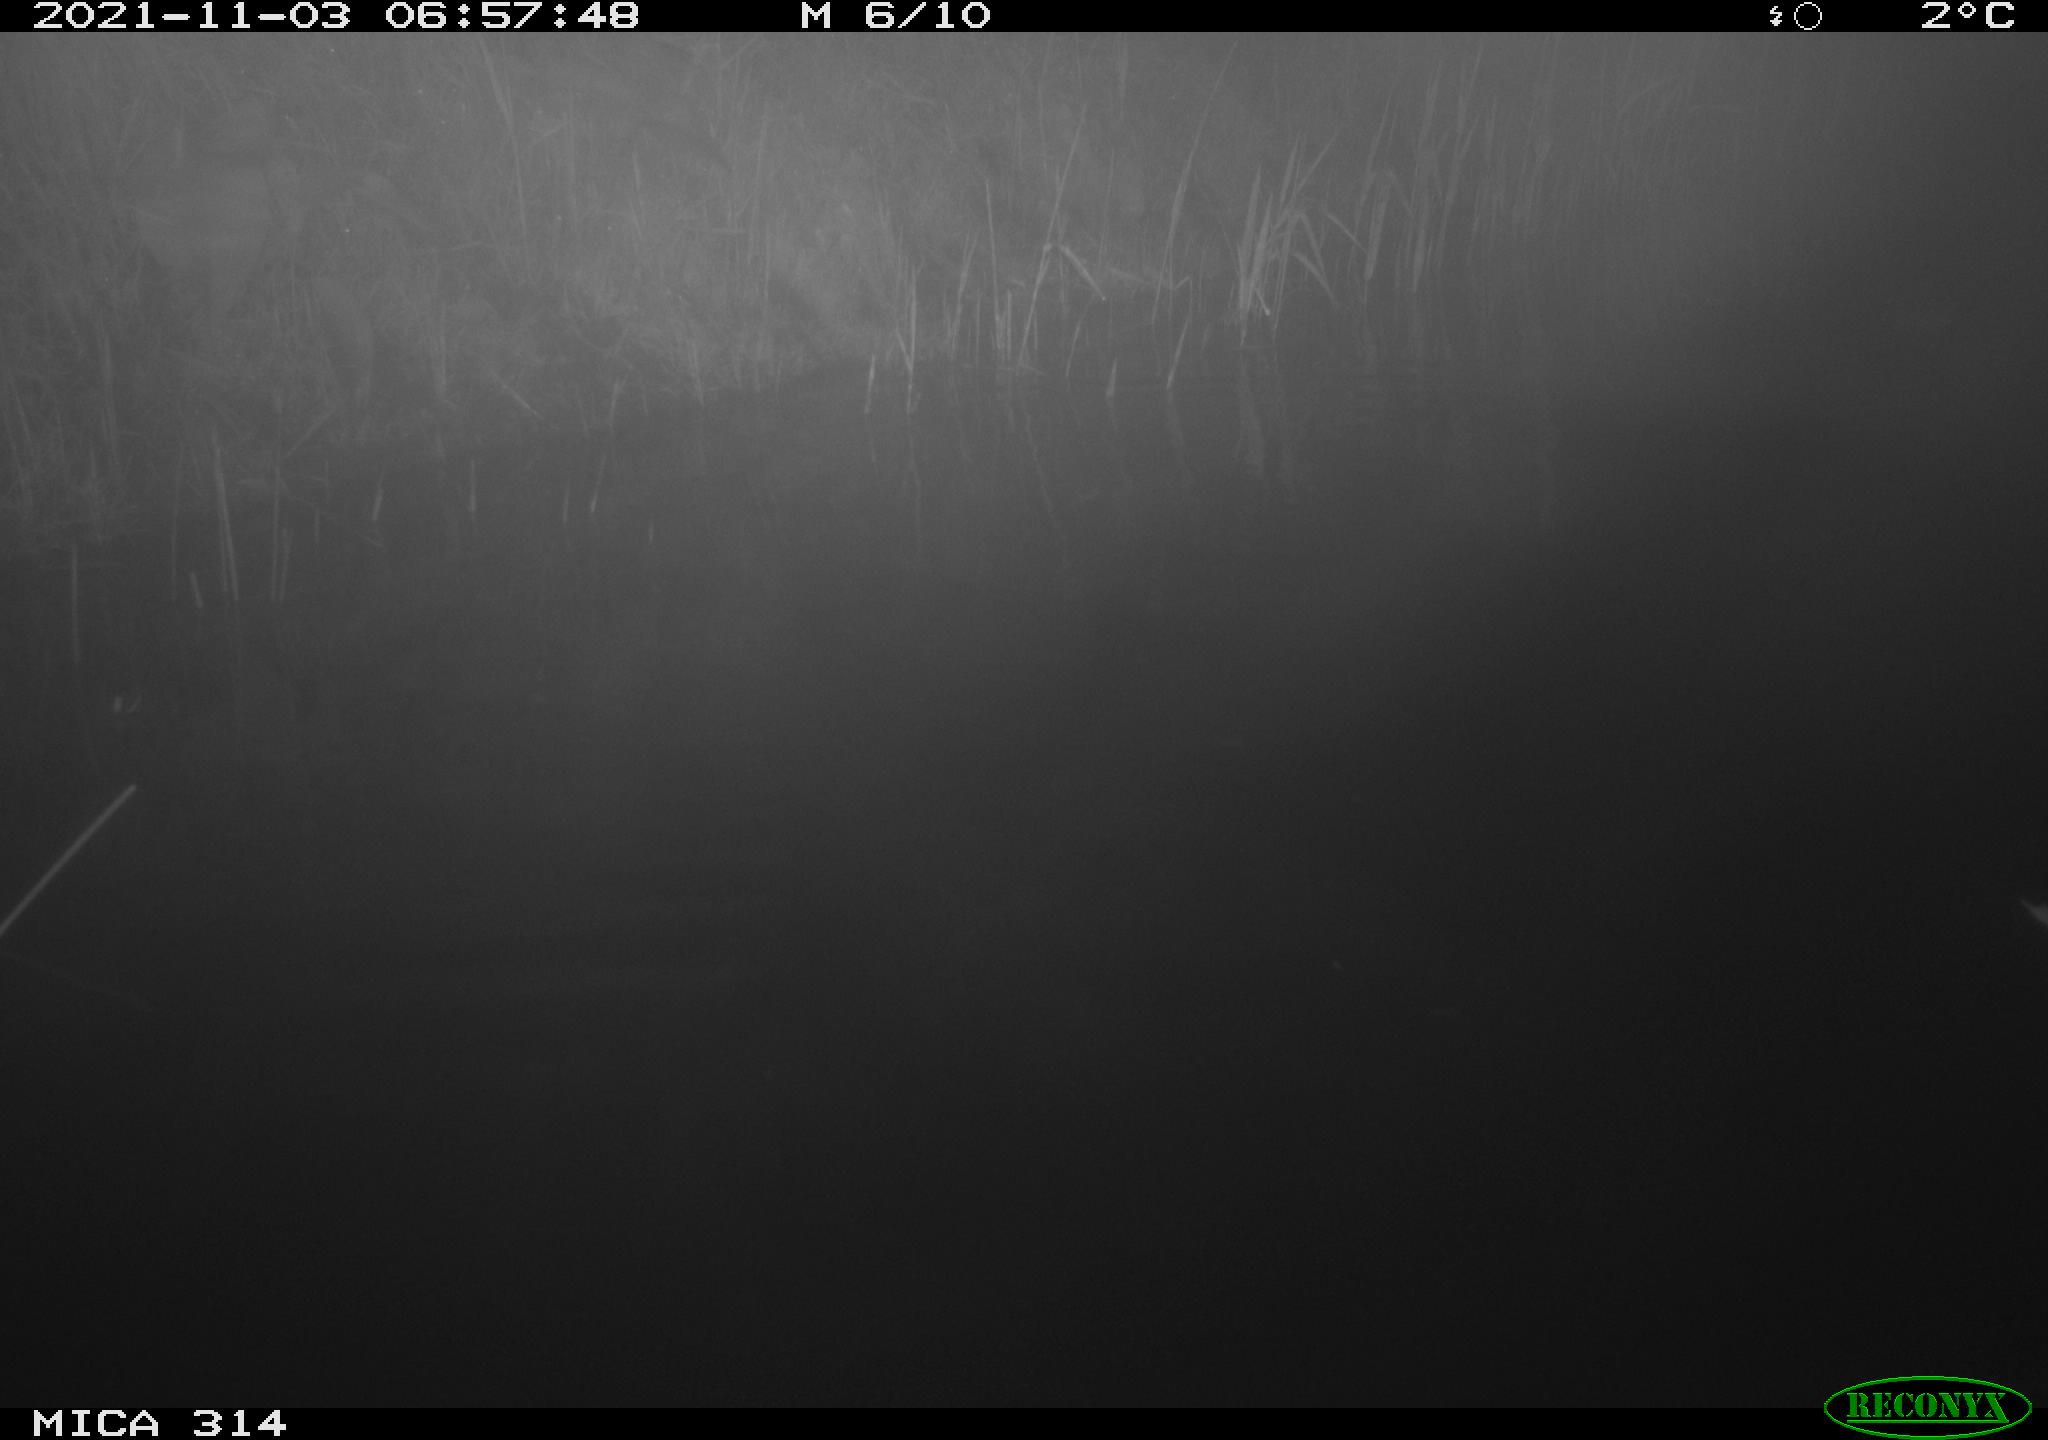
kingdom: Animalia
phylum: Chordata
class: Mammalia
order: Rodentia
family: Muridae
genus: Rattus
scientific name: Rattus norvegicus
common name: Brown rat
